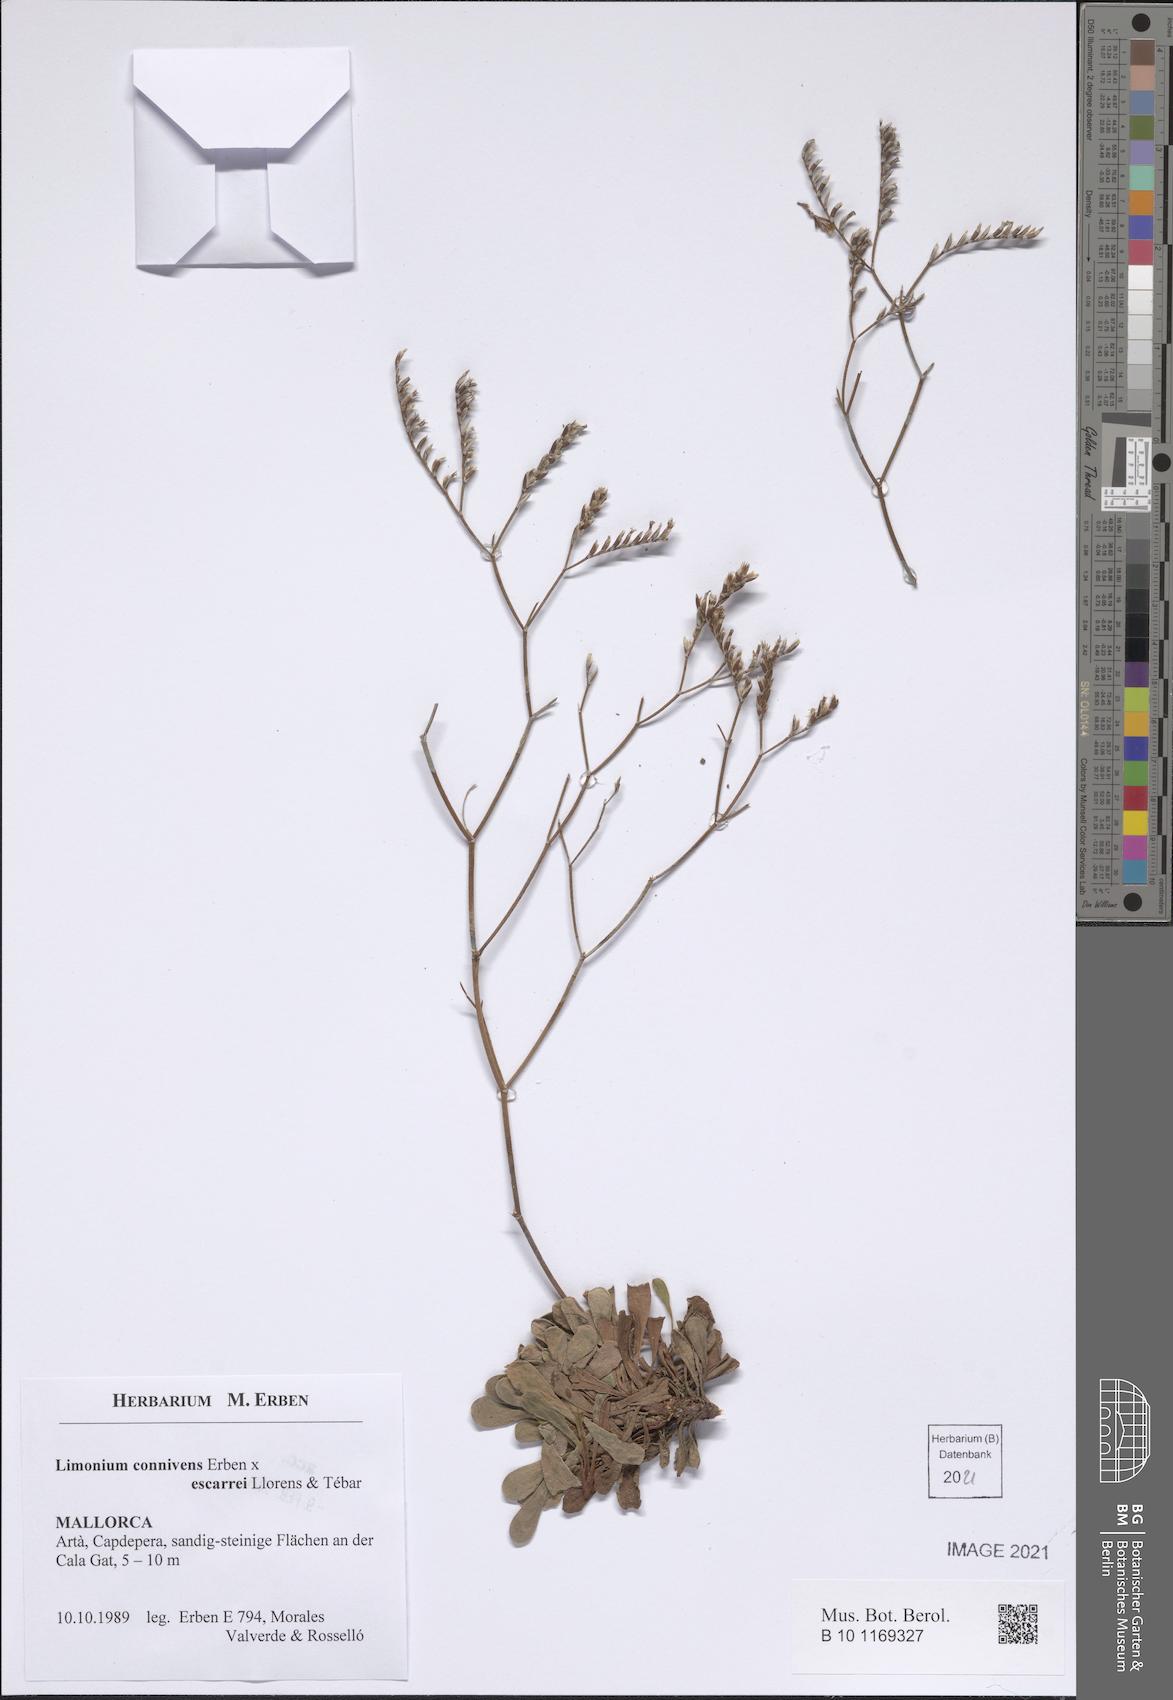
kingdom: Plantae
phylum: Tracheophyta
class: Magnoliopsida
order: Caryophyllales
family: Plumbaginaceae
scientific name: Plumbaginaceae
